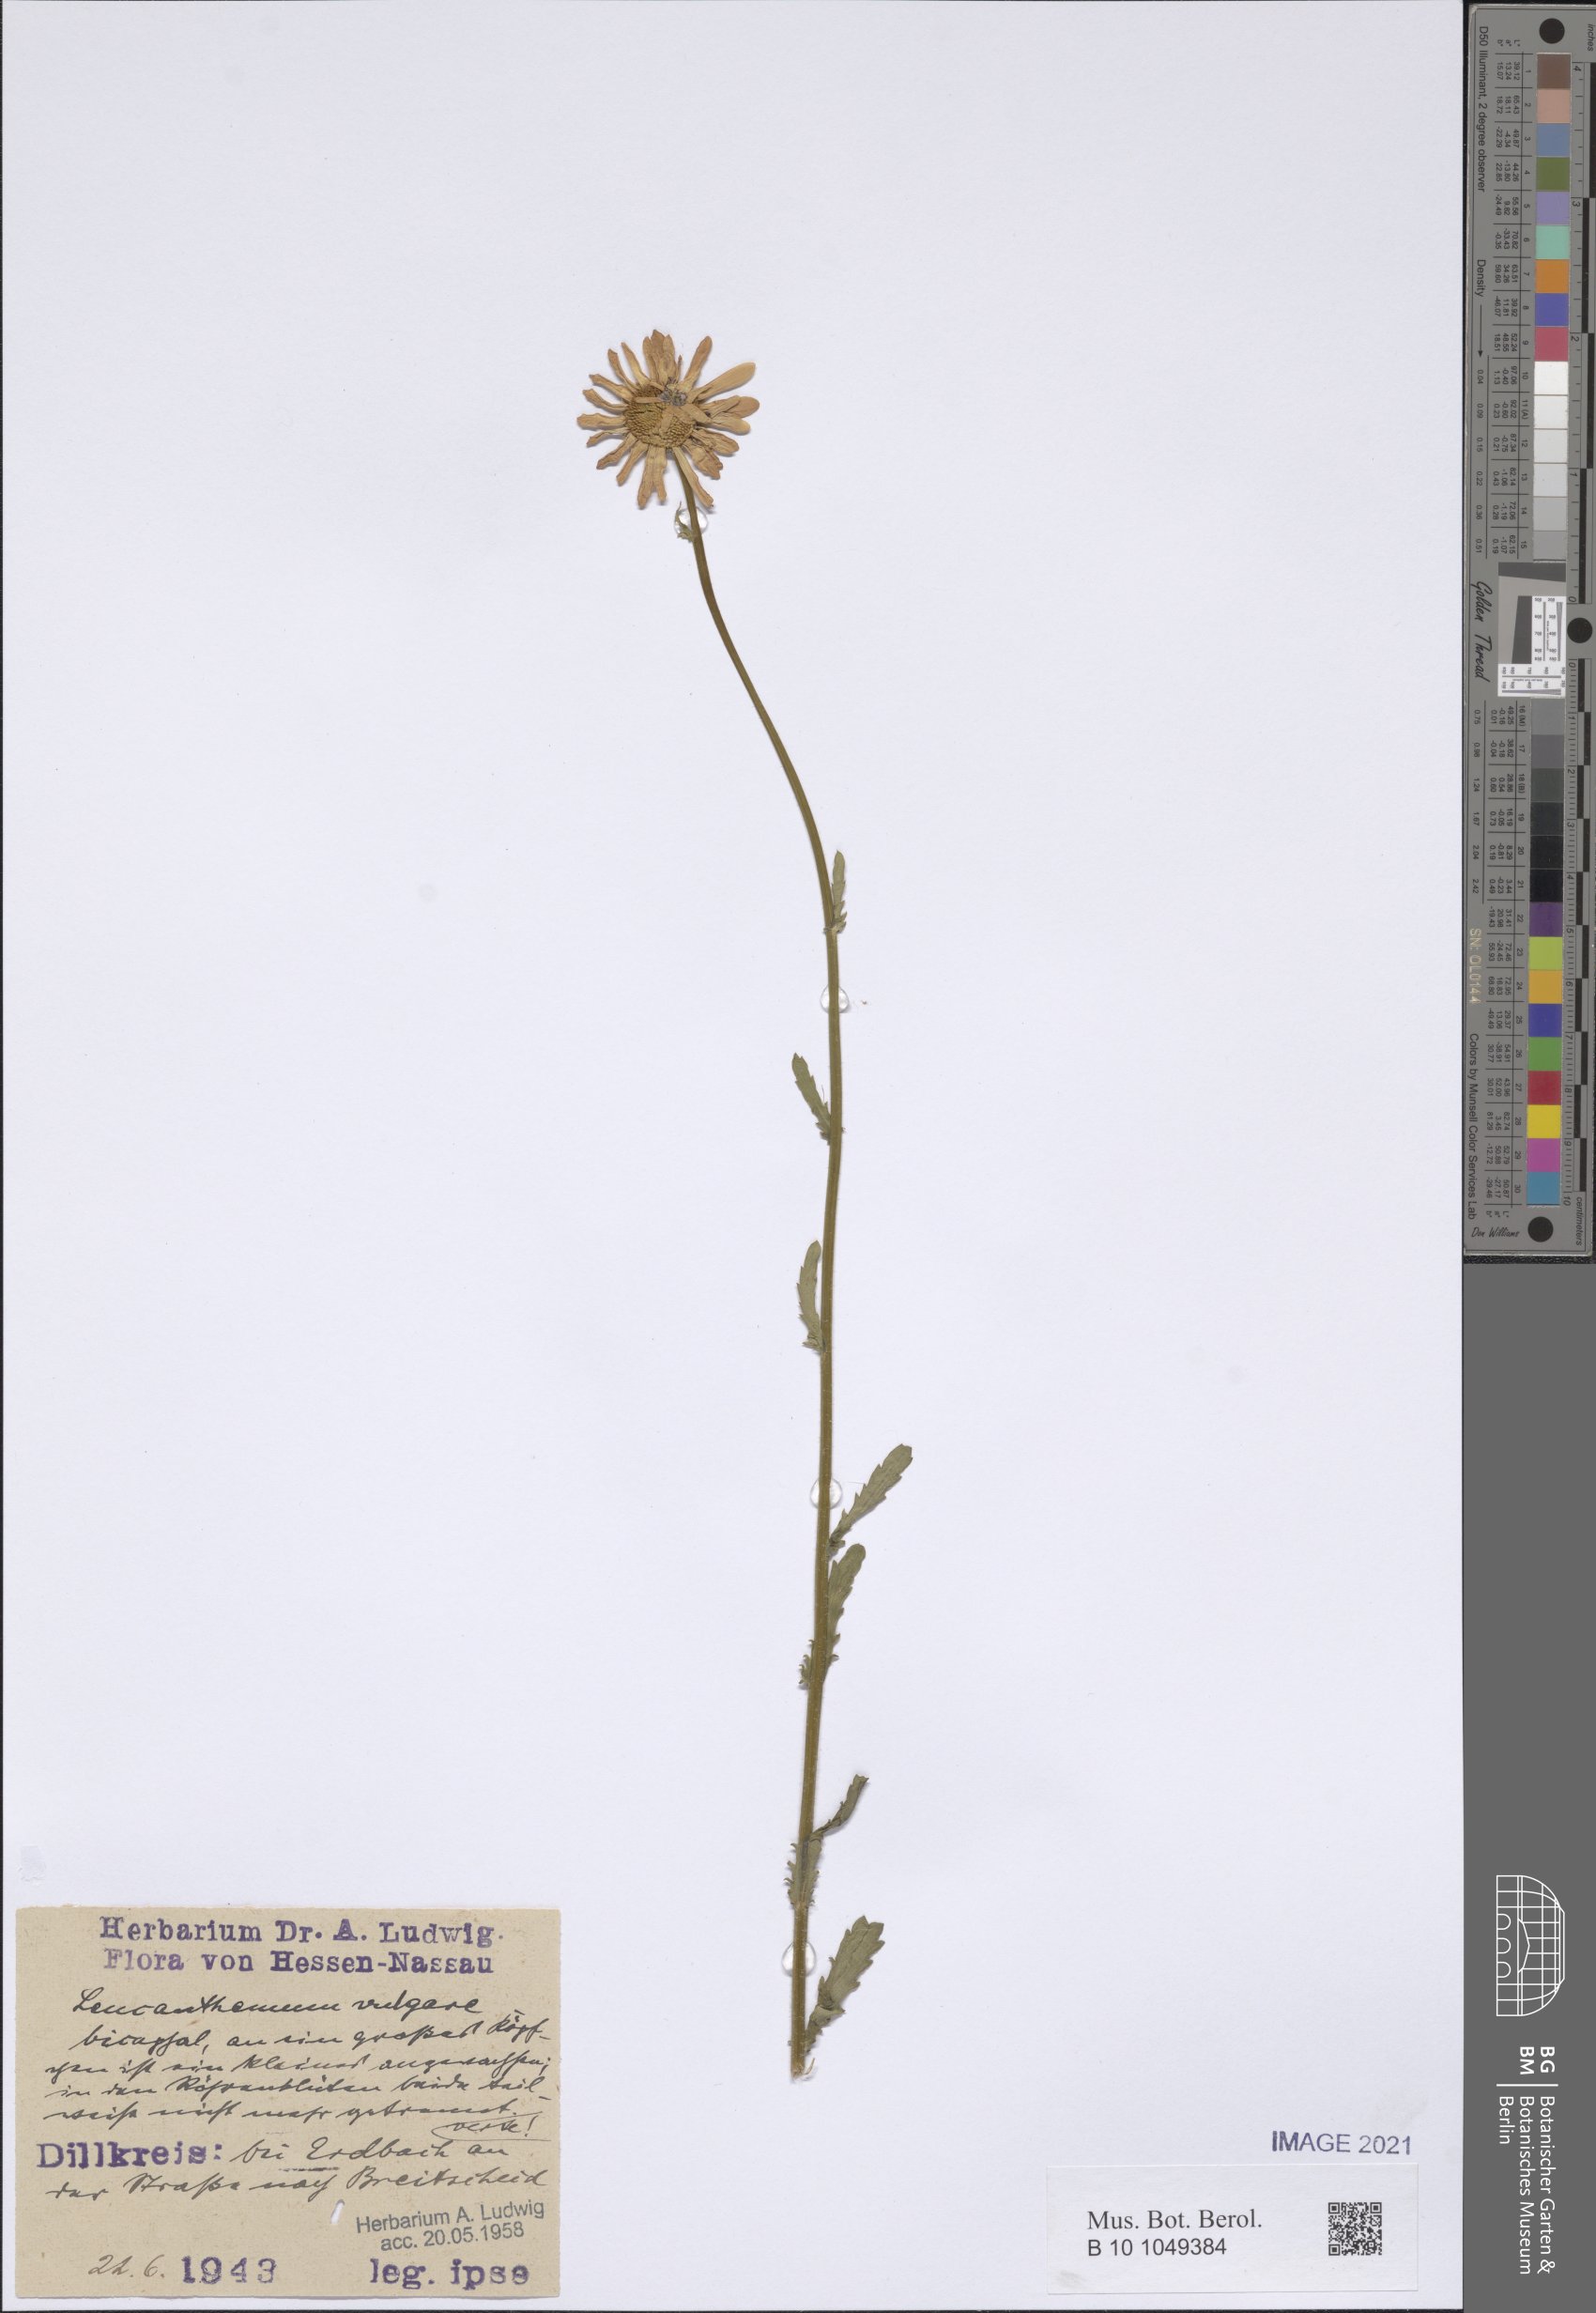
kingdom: Plantae
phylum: Tracheophyta
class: Magnoliopsida
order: Asterales
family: Asteraceae
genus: Leucanthemum
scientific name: Leucanthemum ircutianum
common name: Daisy
